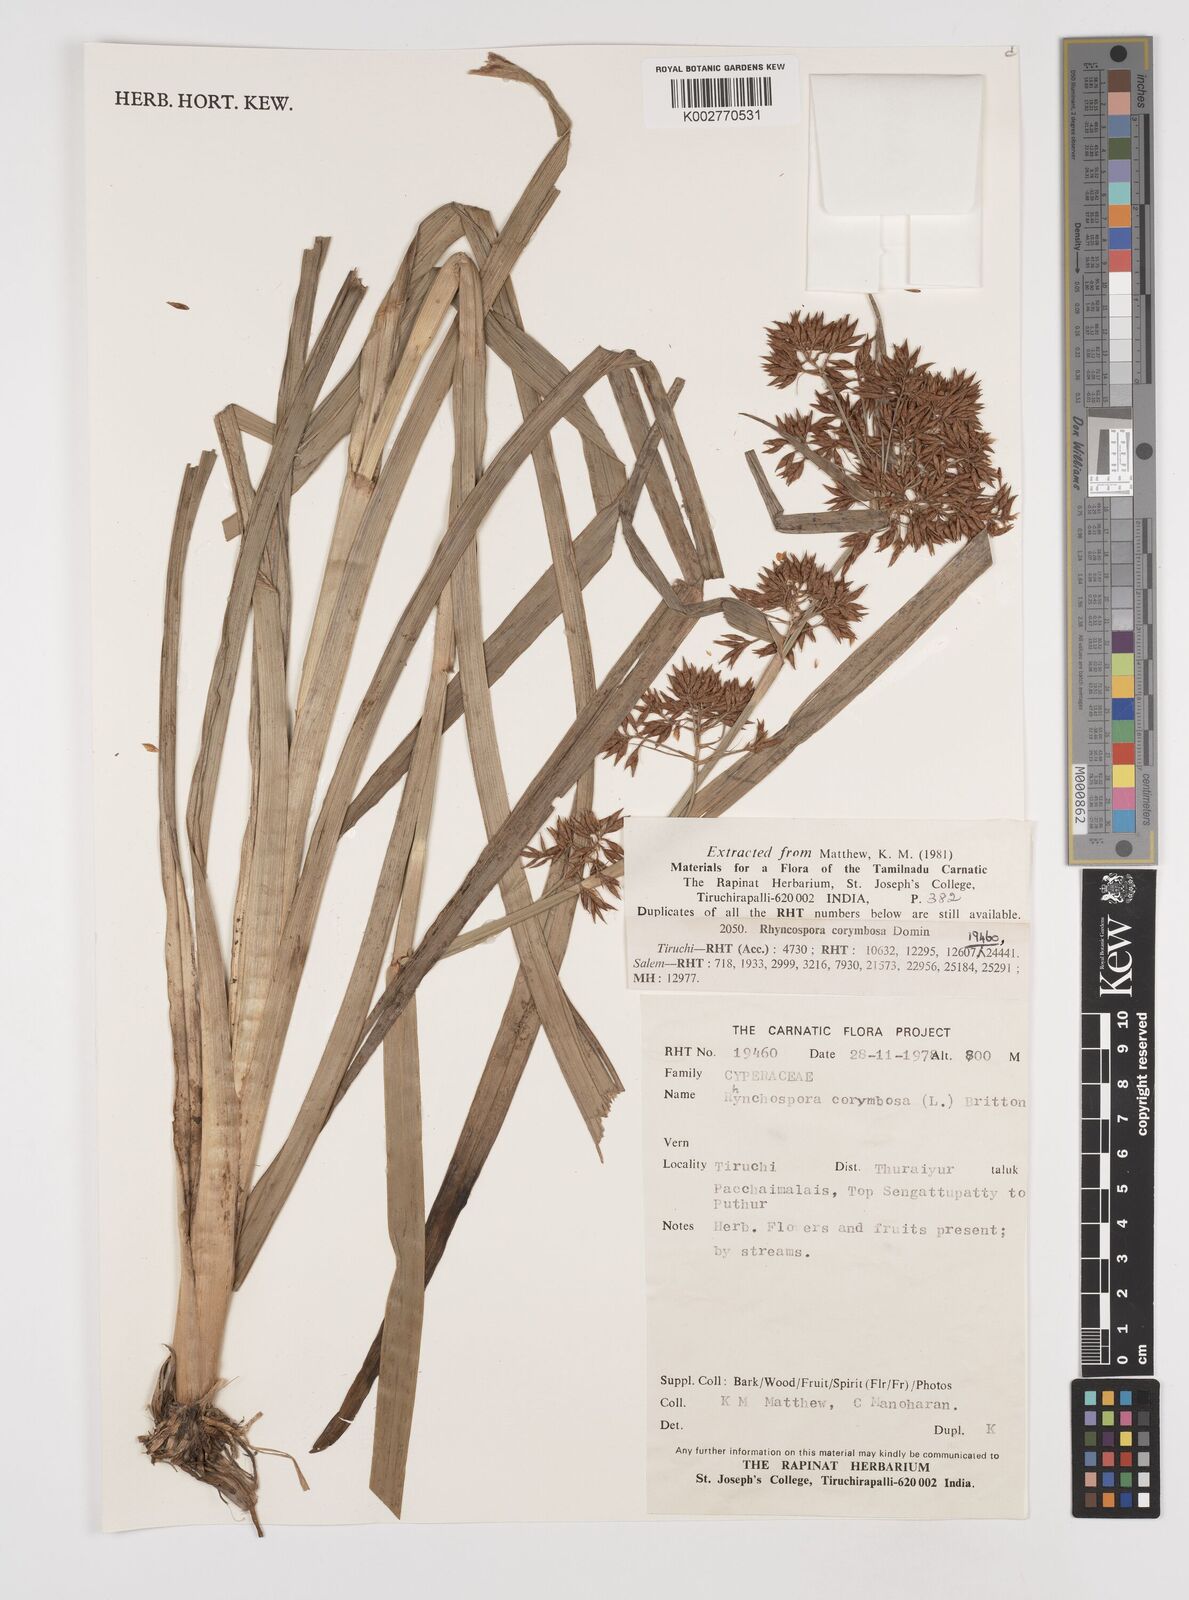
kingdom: Plantae
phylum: Tracheophyta
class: Liliopsida
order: Poales
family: Cyperaceae
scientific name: Cyperaceae
